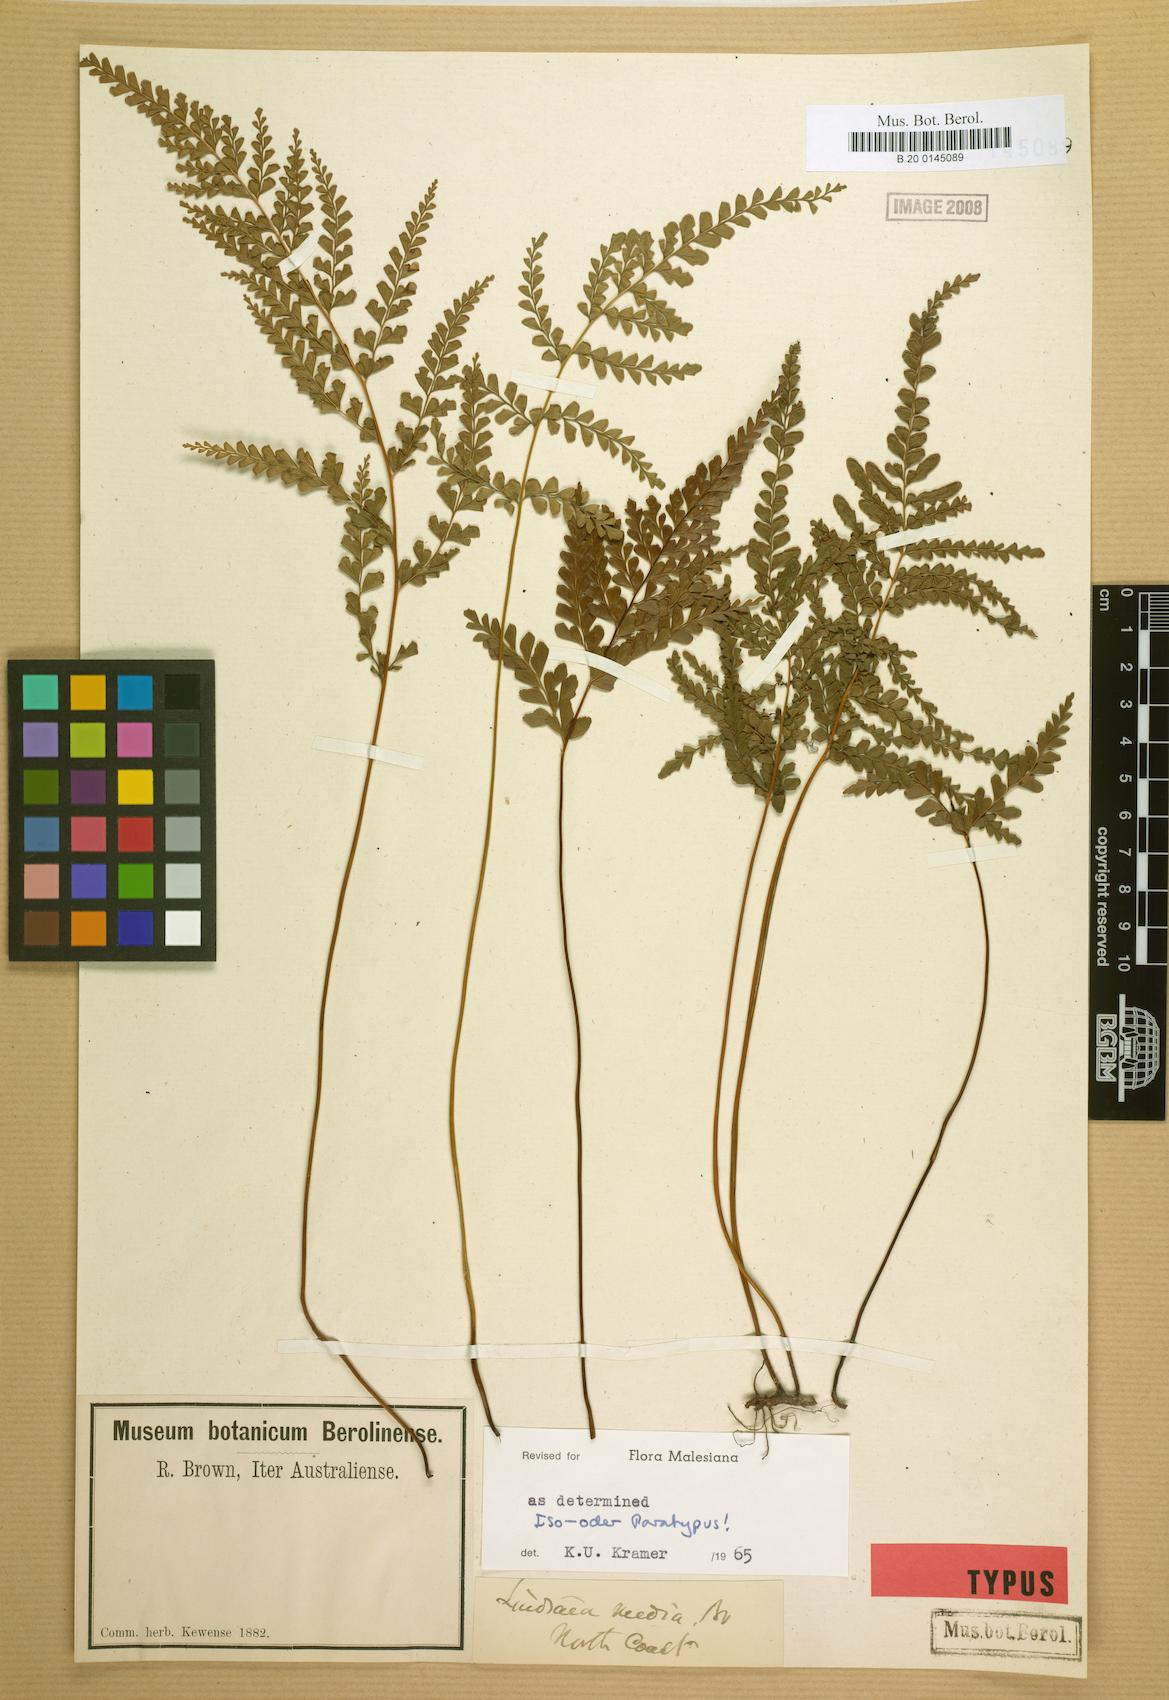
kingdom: Plantae
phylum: Tracheophyta
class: Polypodiopsida
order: Polypodiales
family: Lindsaeaceae
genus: Lindsaea
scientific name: Lindsaea media
